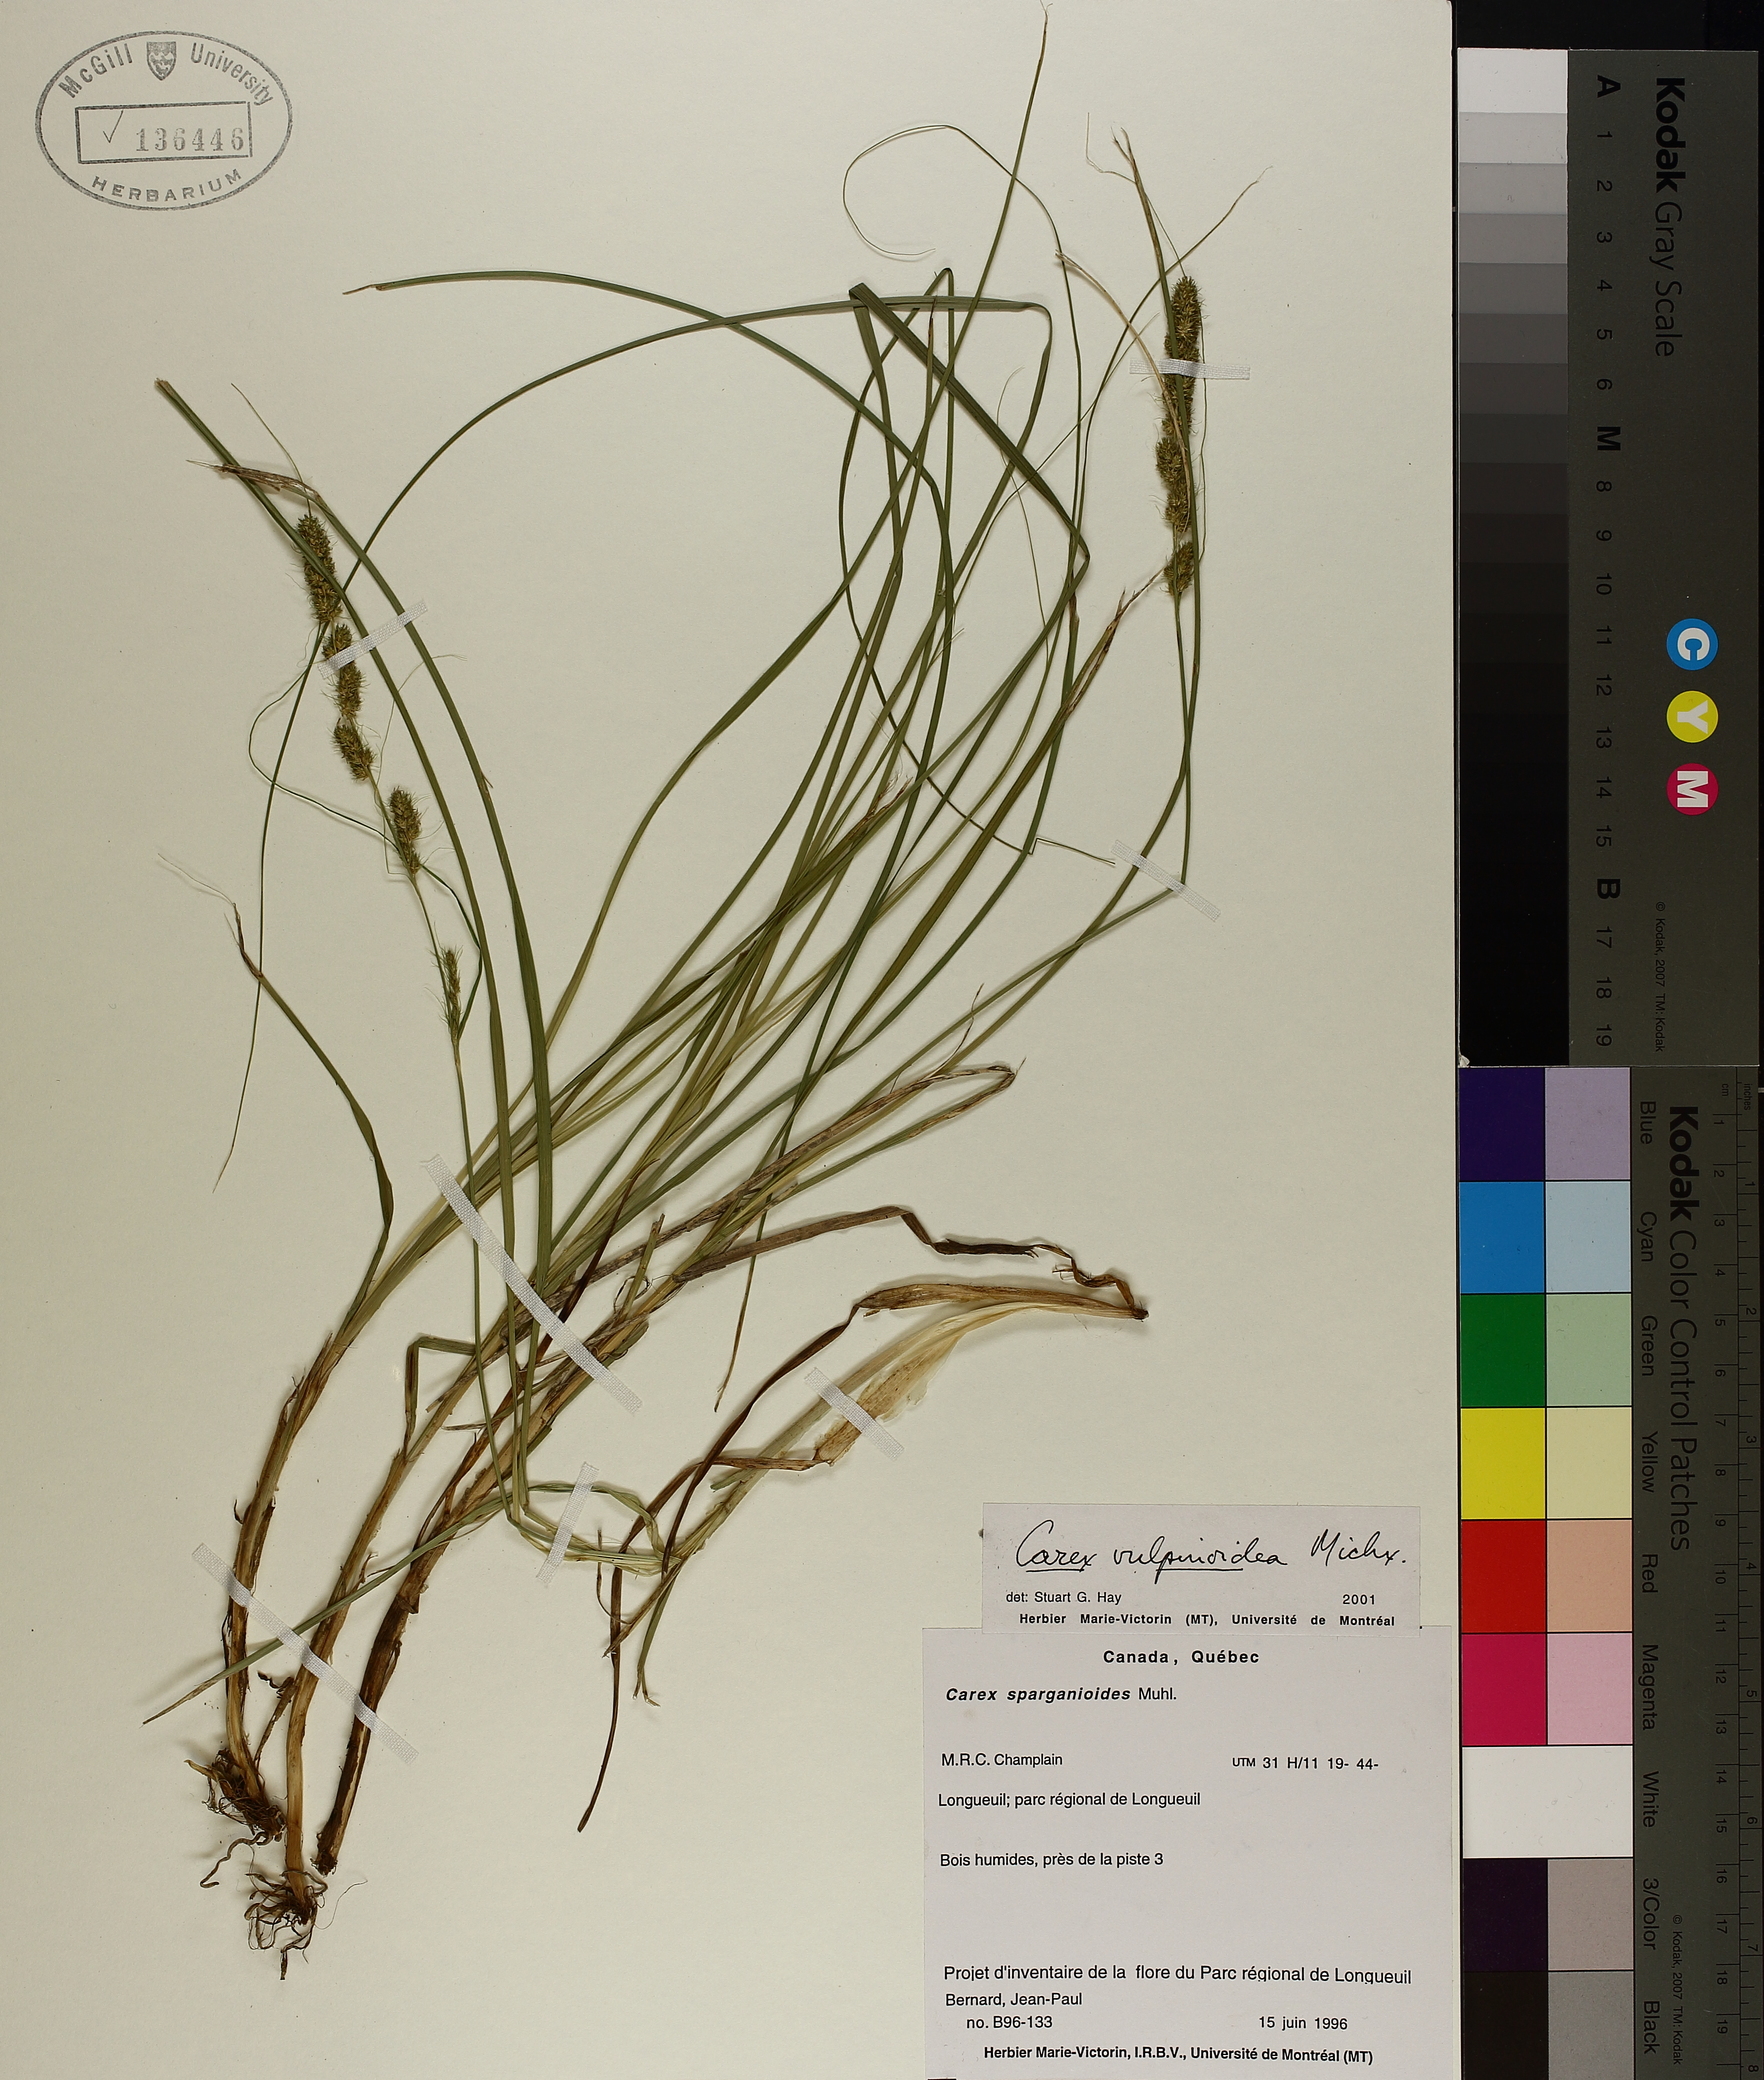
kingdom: Plantae
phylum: Tracheophyta
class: Liliopsida
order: Poales
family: Cyperaceae
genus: Carex
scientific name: Carex vulpinoidea
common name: American fox-sedge
